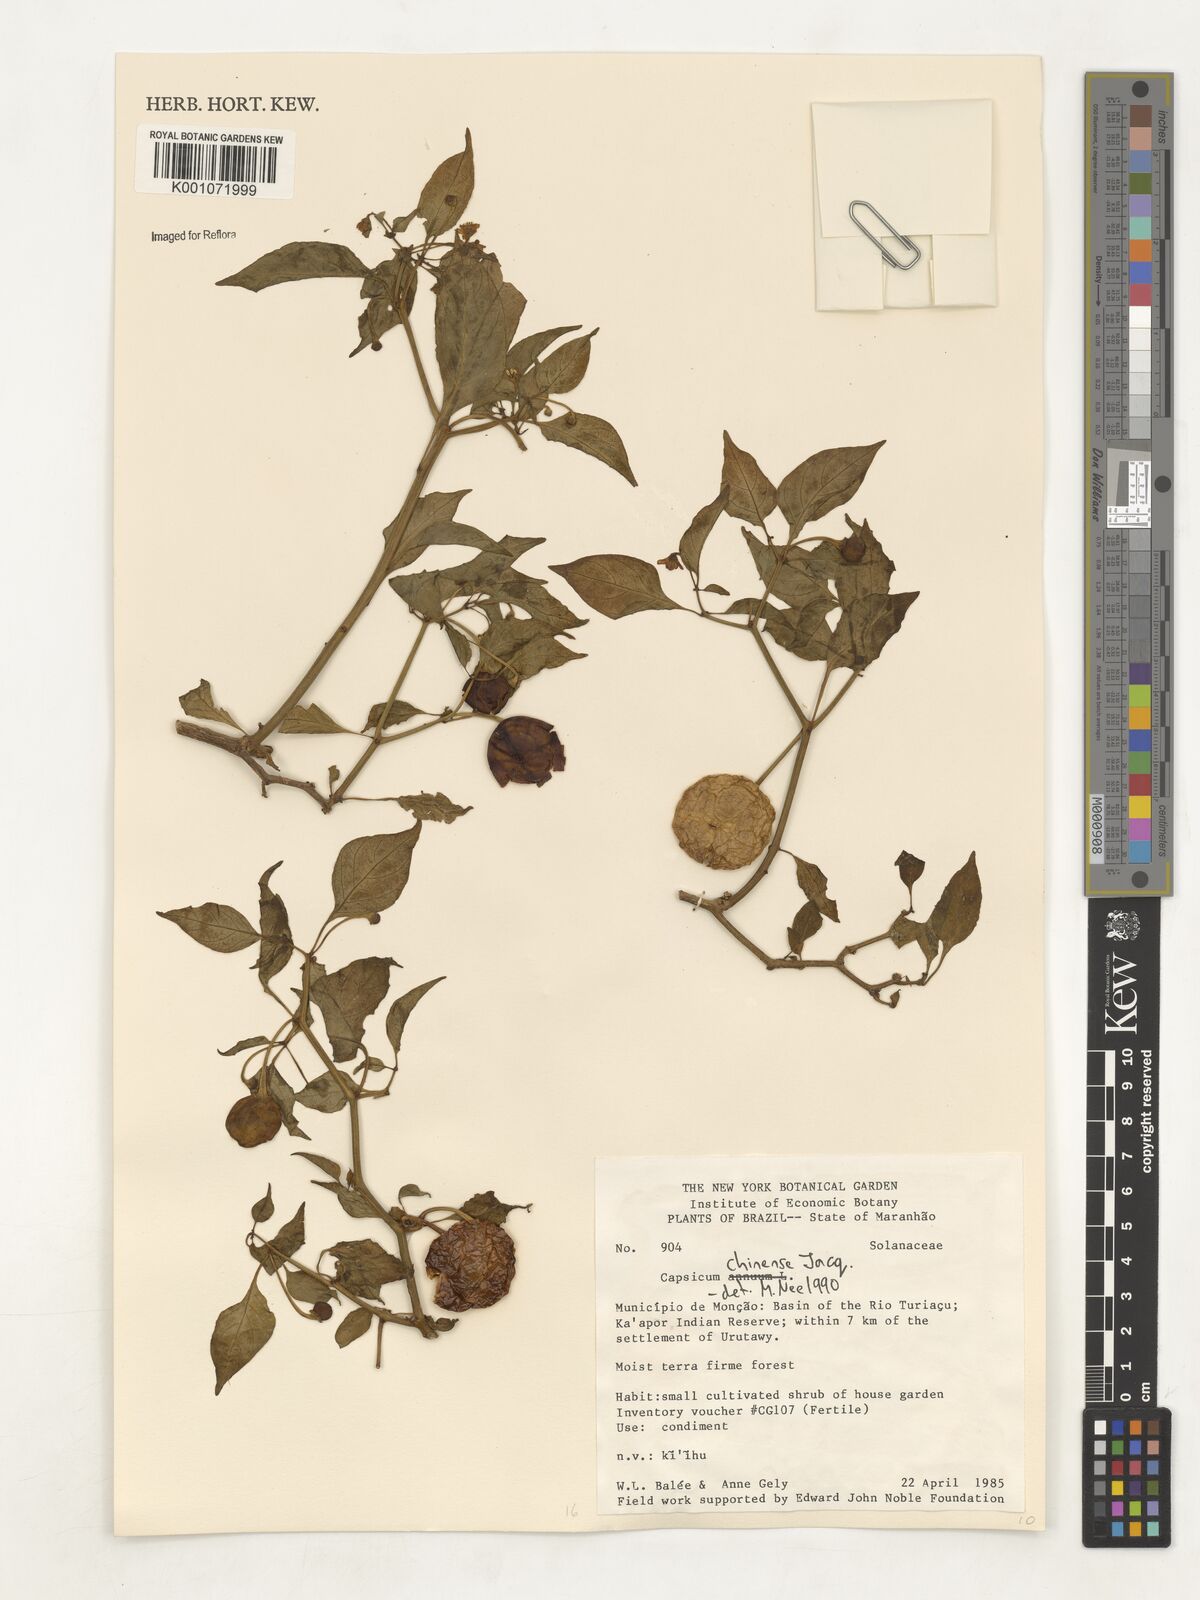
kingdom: Plantae
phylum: Tracheophyta
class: Magnoliopsida
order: Solanales
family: Solanaceae
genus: Capsicum
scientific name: Capsicum chinense
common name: Yellow squash pepper
